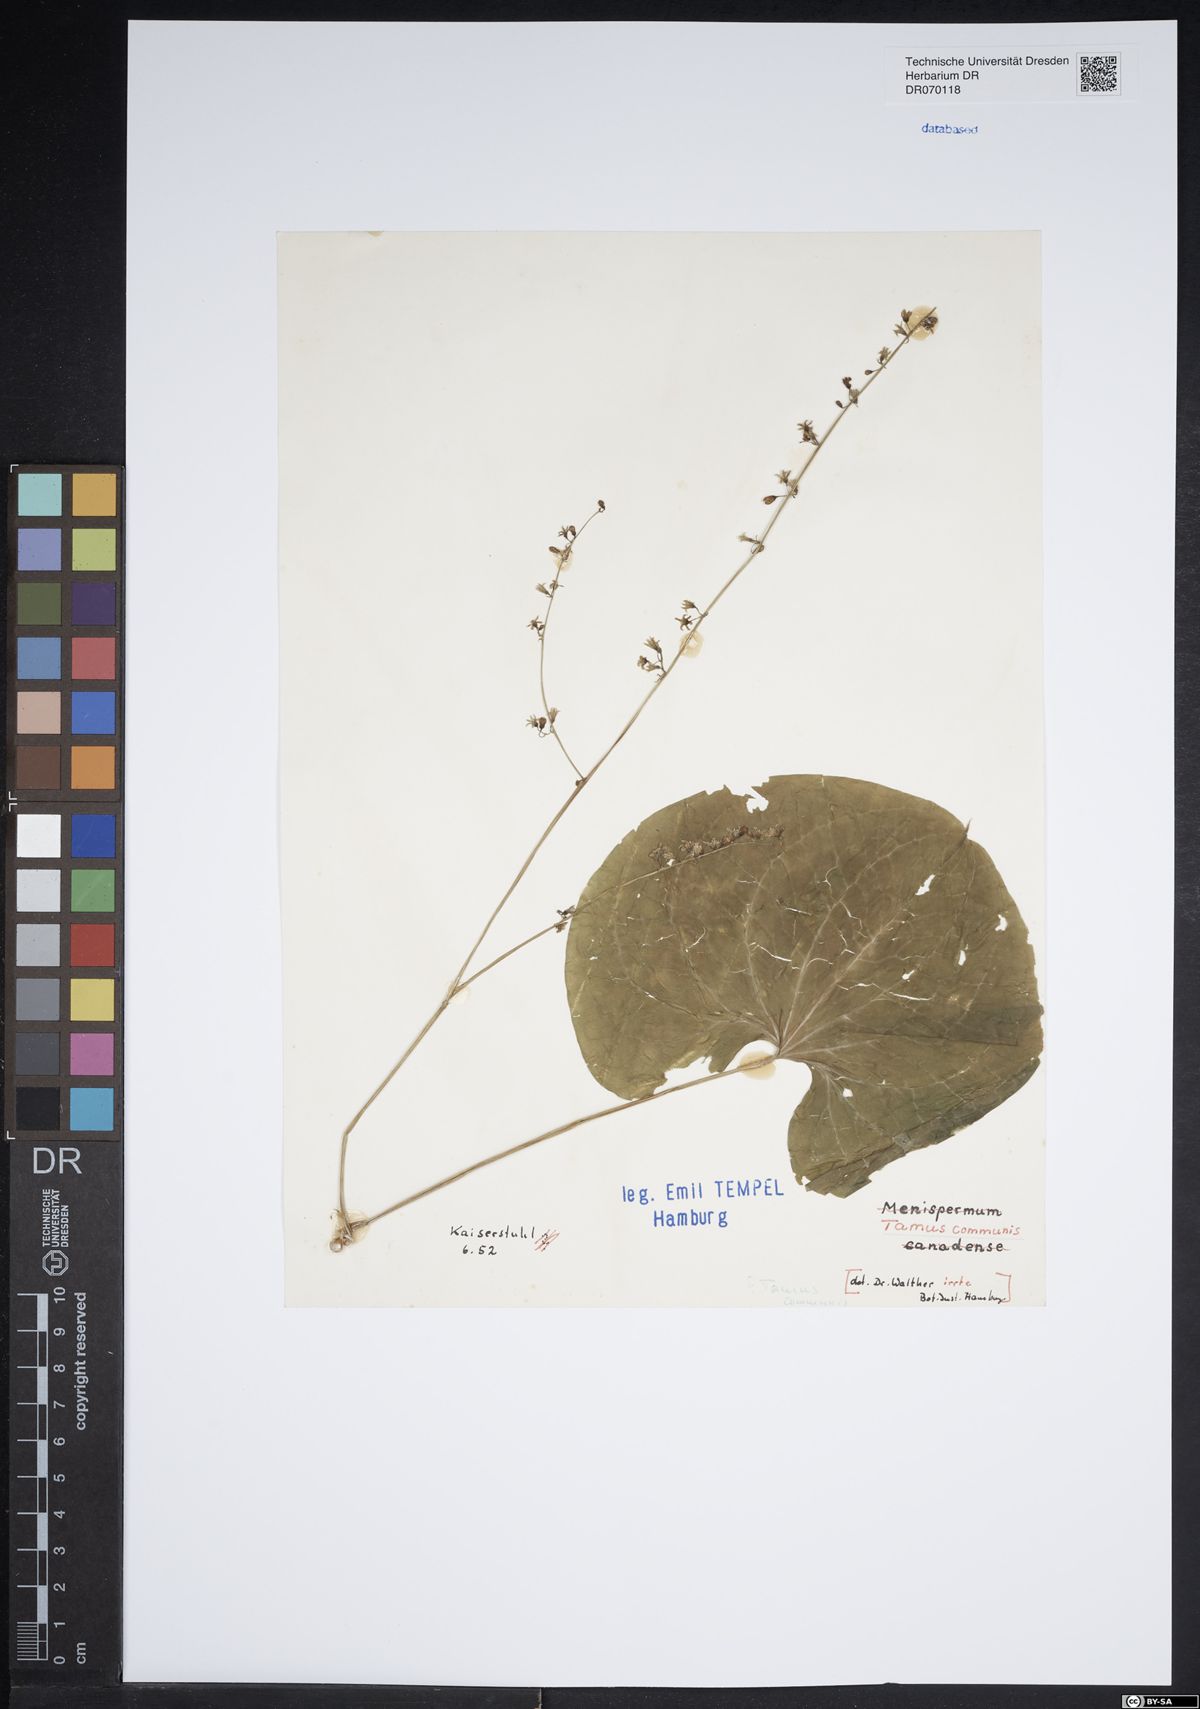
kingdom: Plantae
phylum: Tracheophyta
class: Liliopsida
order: Dioscoreales
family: Dioscoreaceae
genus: Dioscorea
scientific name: Dioscorea communis
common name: Black-bindweed
